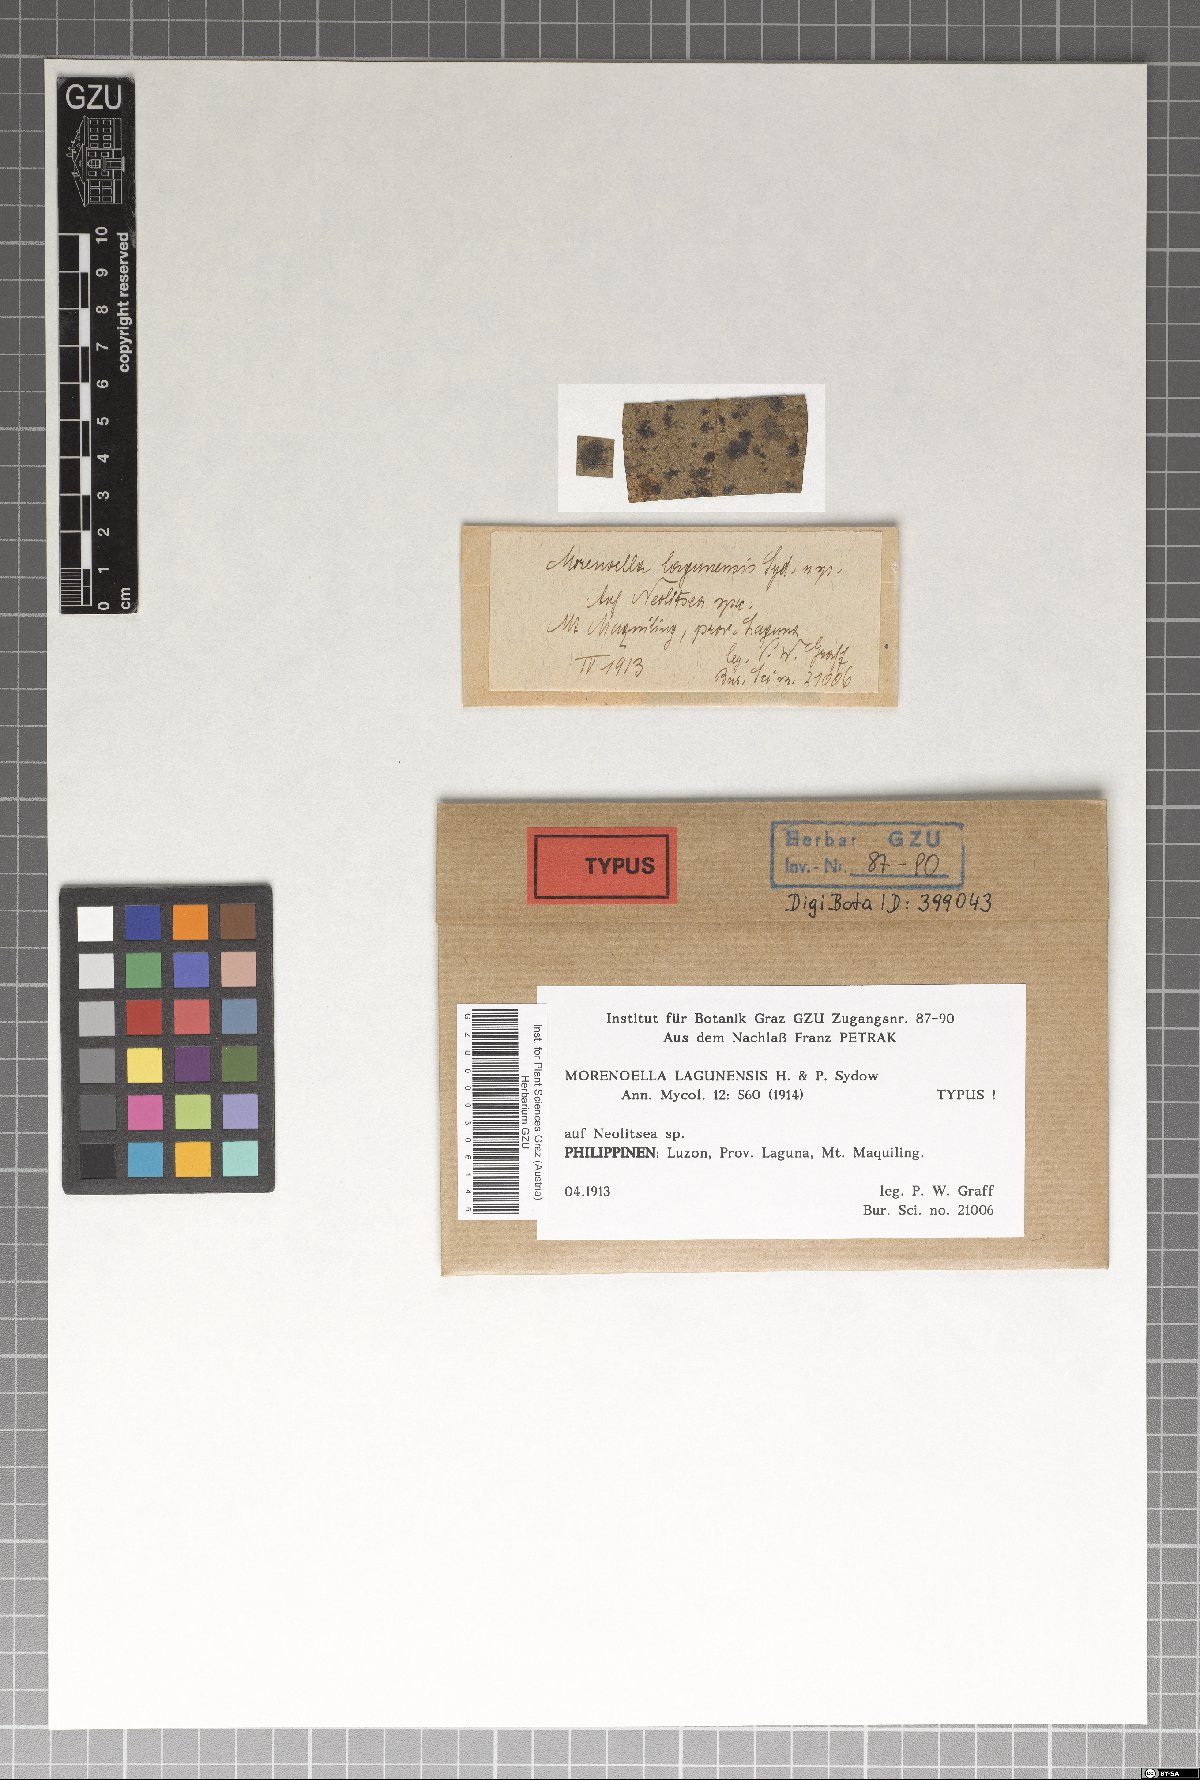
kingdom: Fungi
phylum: Ascomycota
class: Dothideomycetes
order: Asterinales
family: Asterinaceae
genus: Lembosia
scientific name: Lembosia lagunensis
